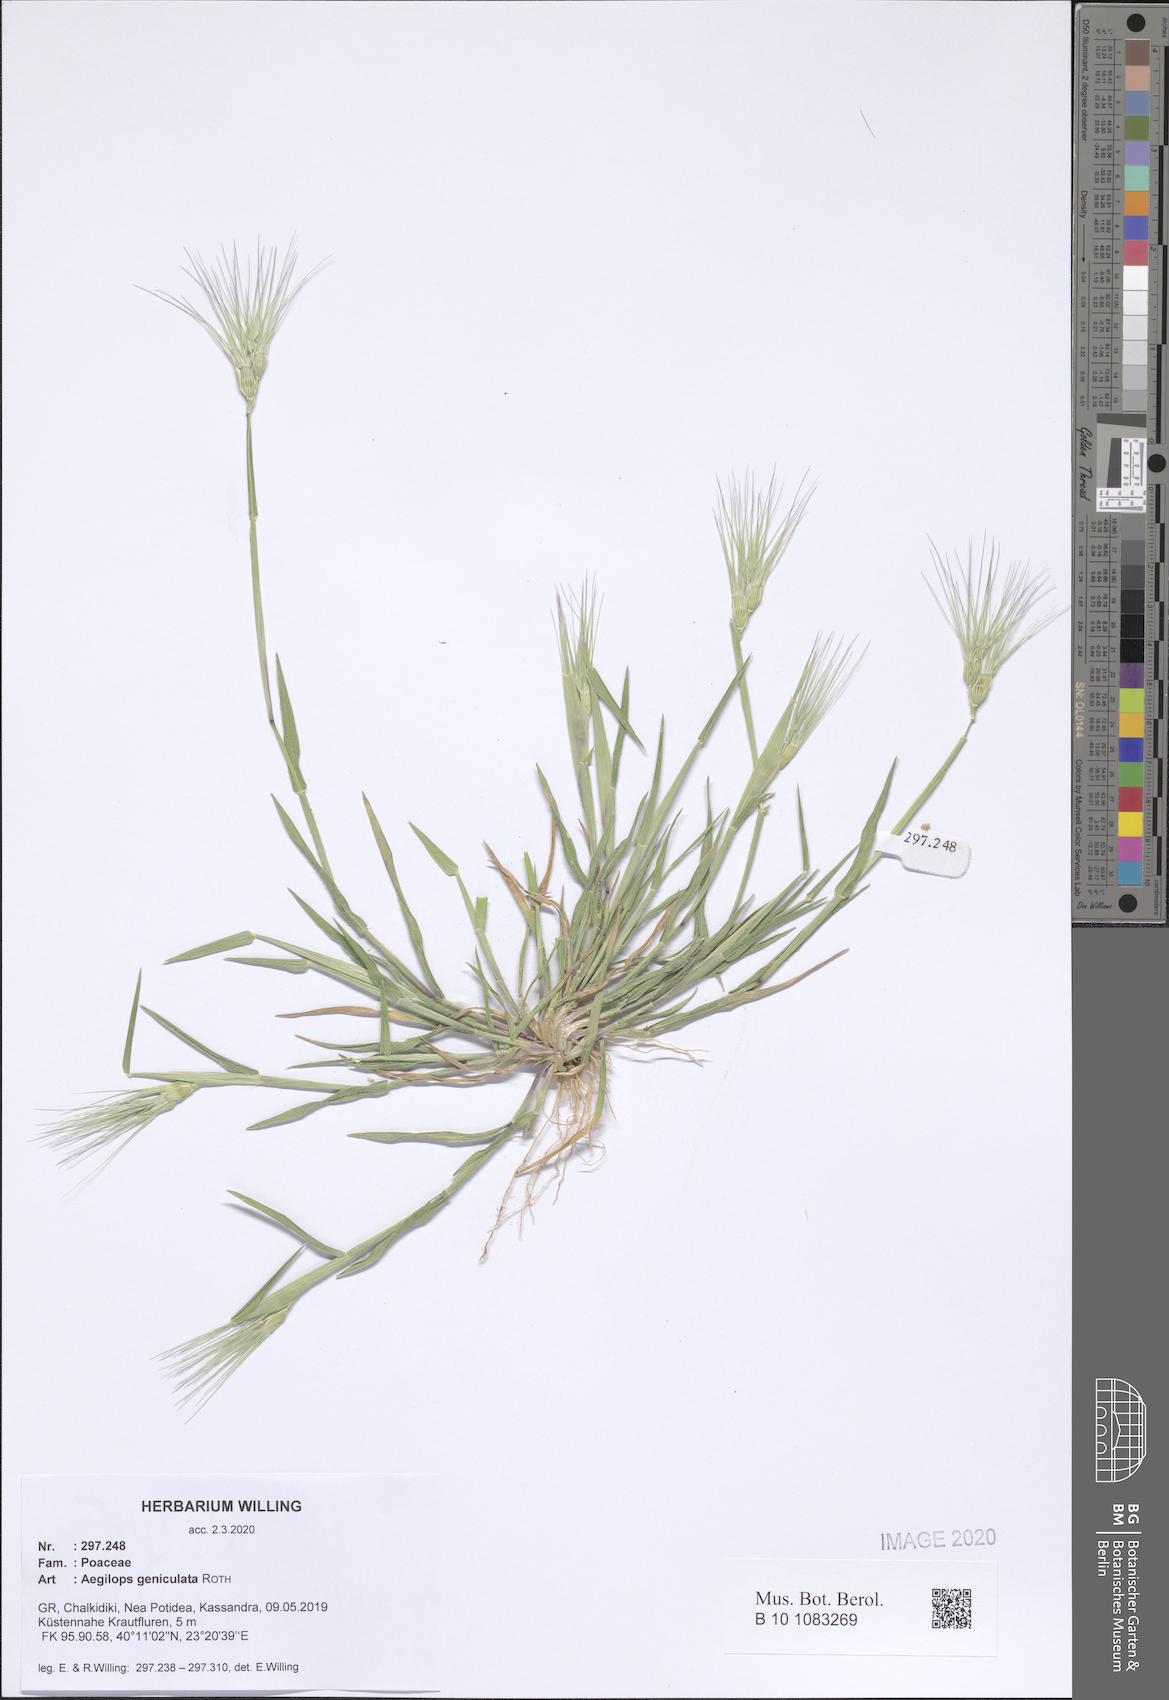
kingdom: Plantae
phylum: Tracheophyta
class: Liliopsida
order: Poales
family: Poaceae
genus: Aegilops
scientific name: Aegilops geniculata
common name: Ovate goat grass
